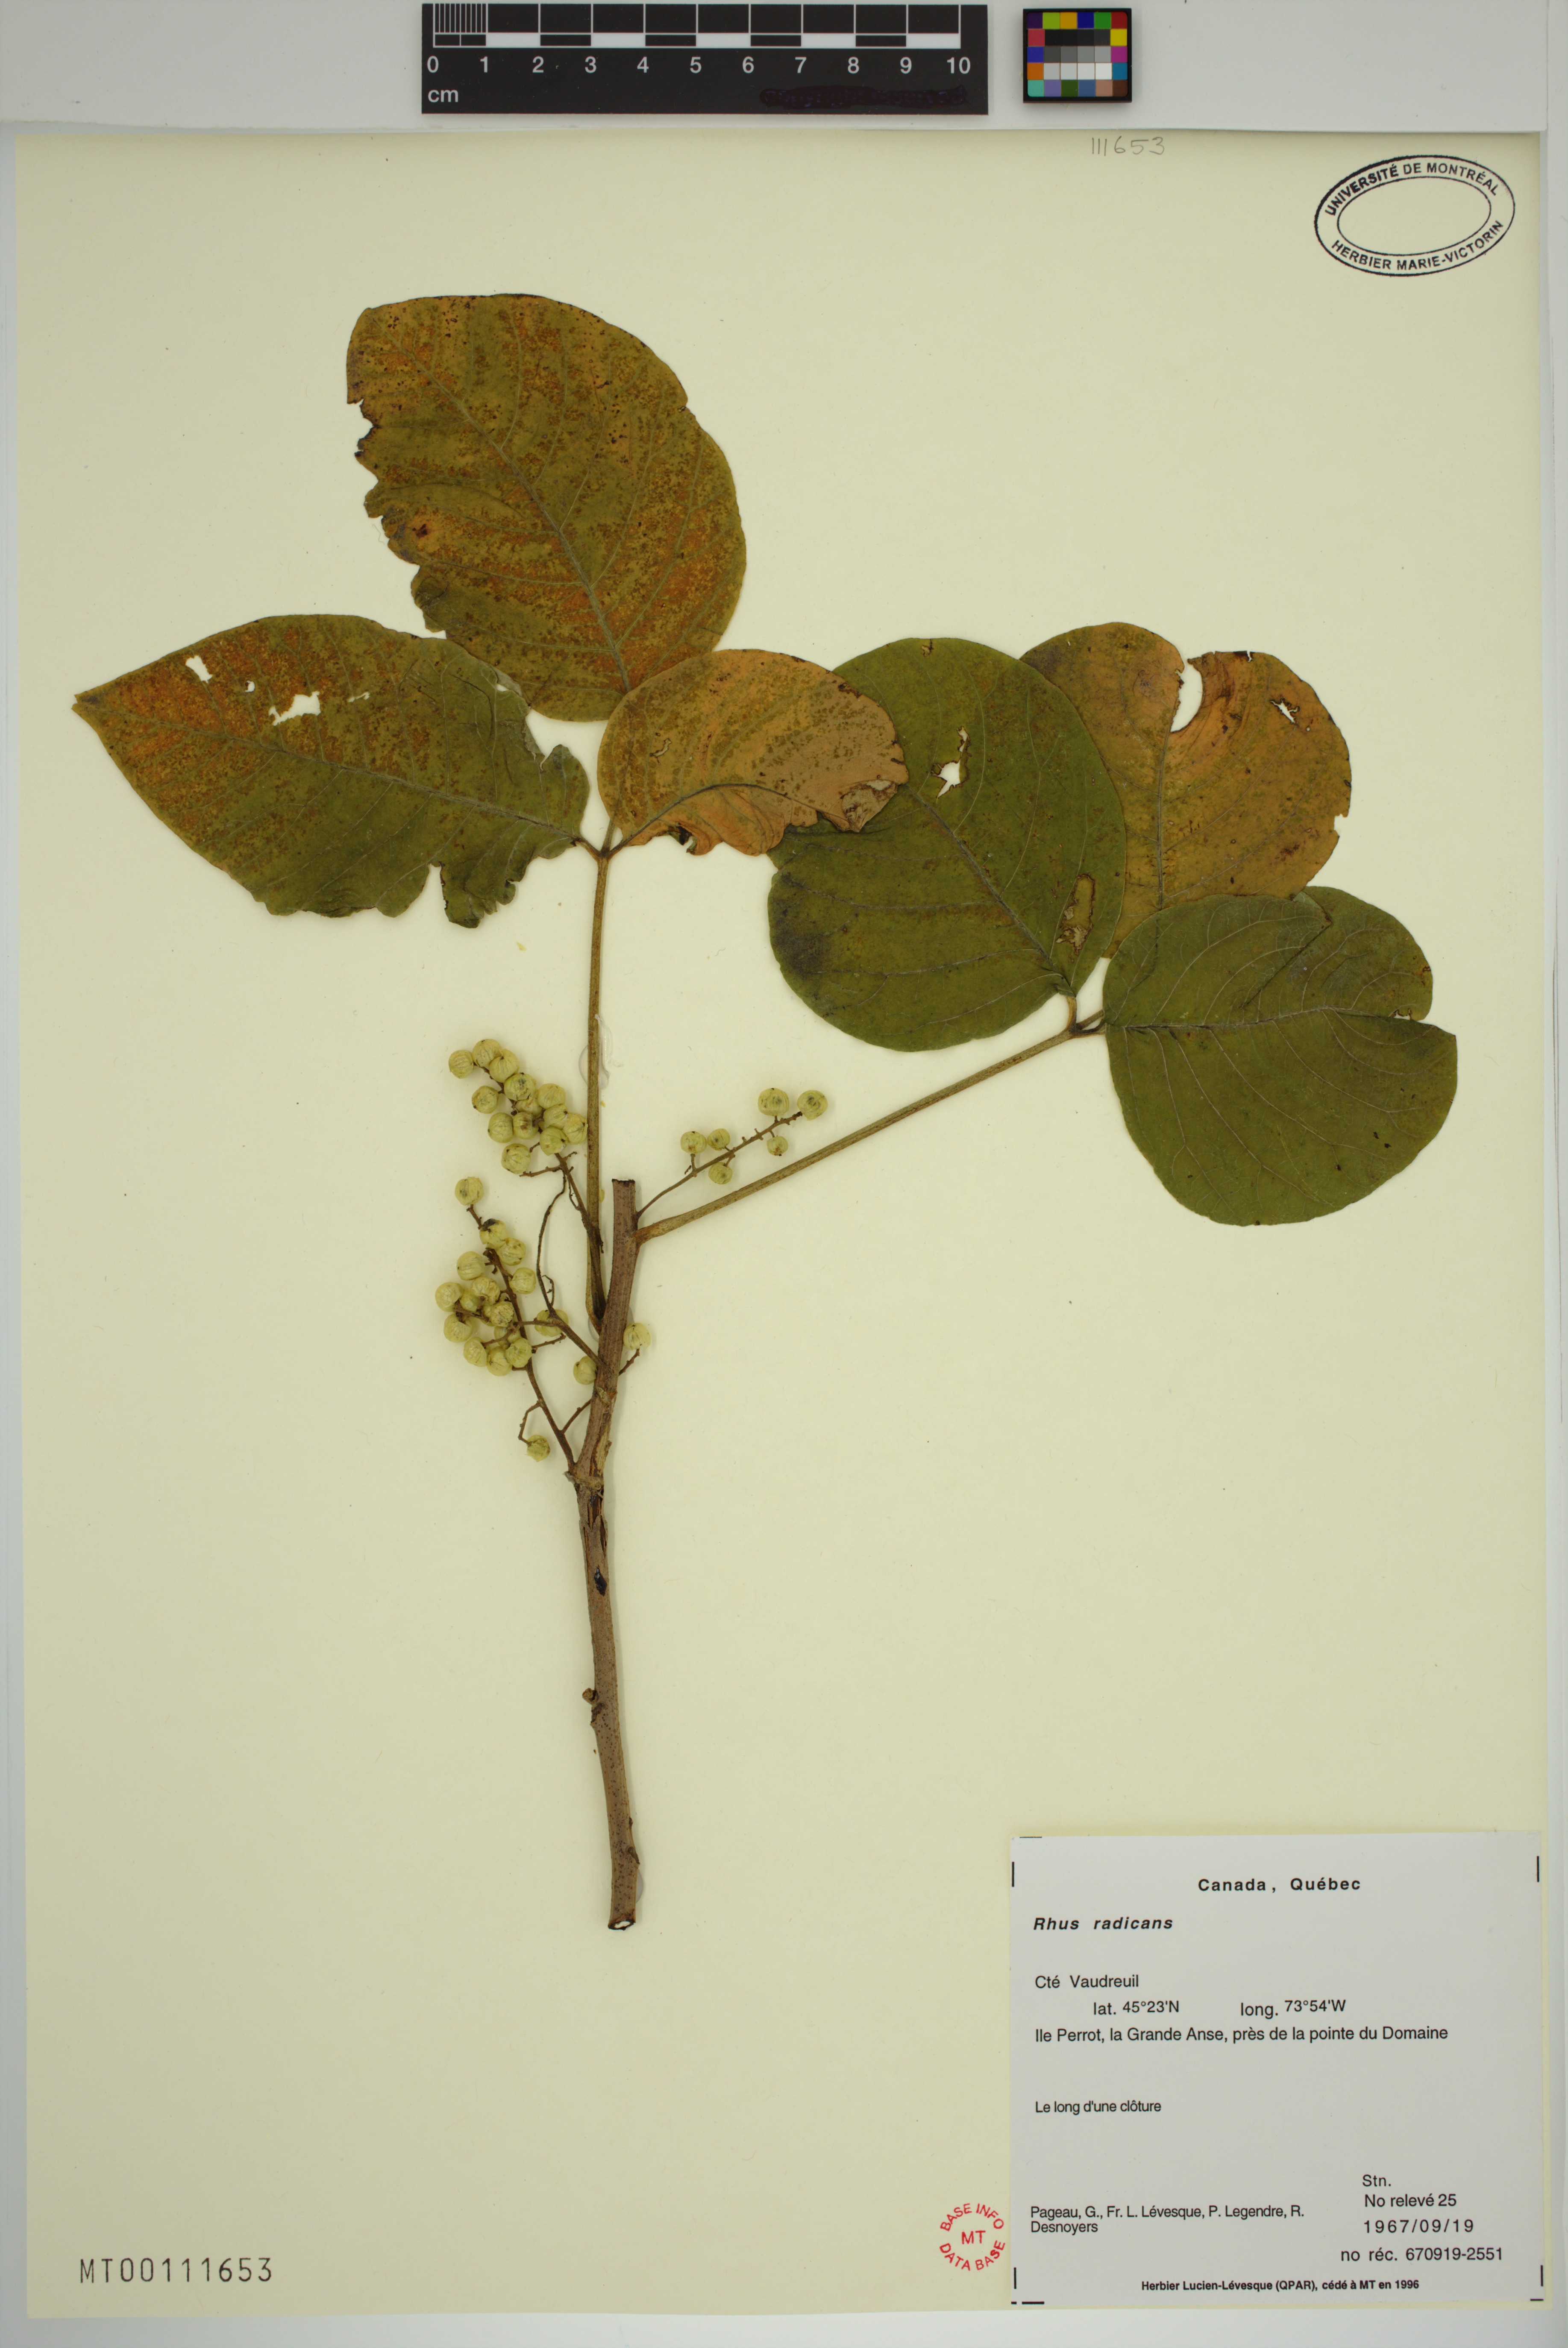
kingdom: Plantae
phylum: Tracheophyta
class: Magnoliopsida
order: Sapindales
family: Anacardiaceae
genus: Toxicodendron
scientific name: Toxicodendron radicans
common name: Poison ivy
